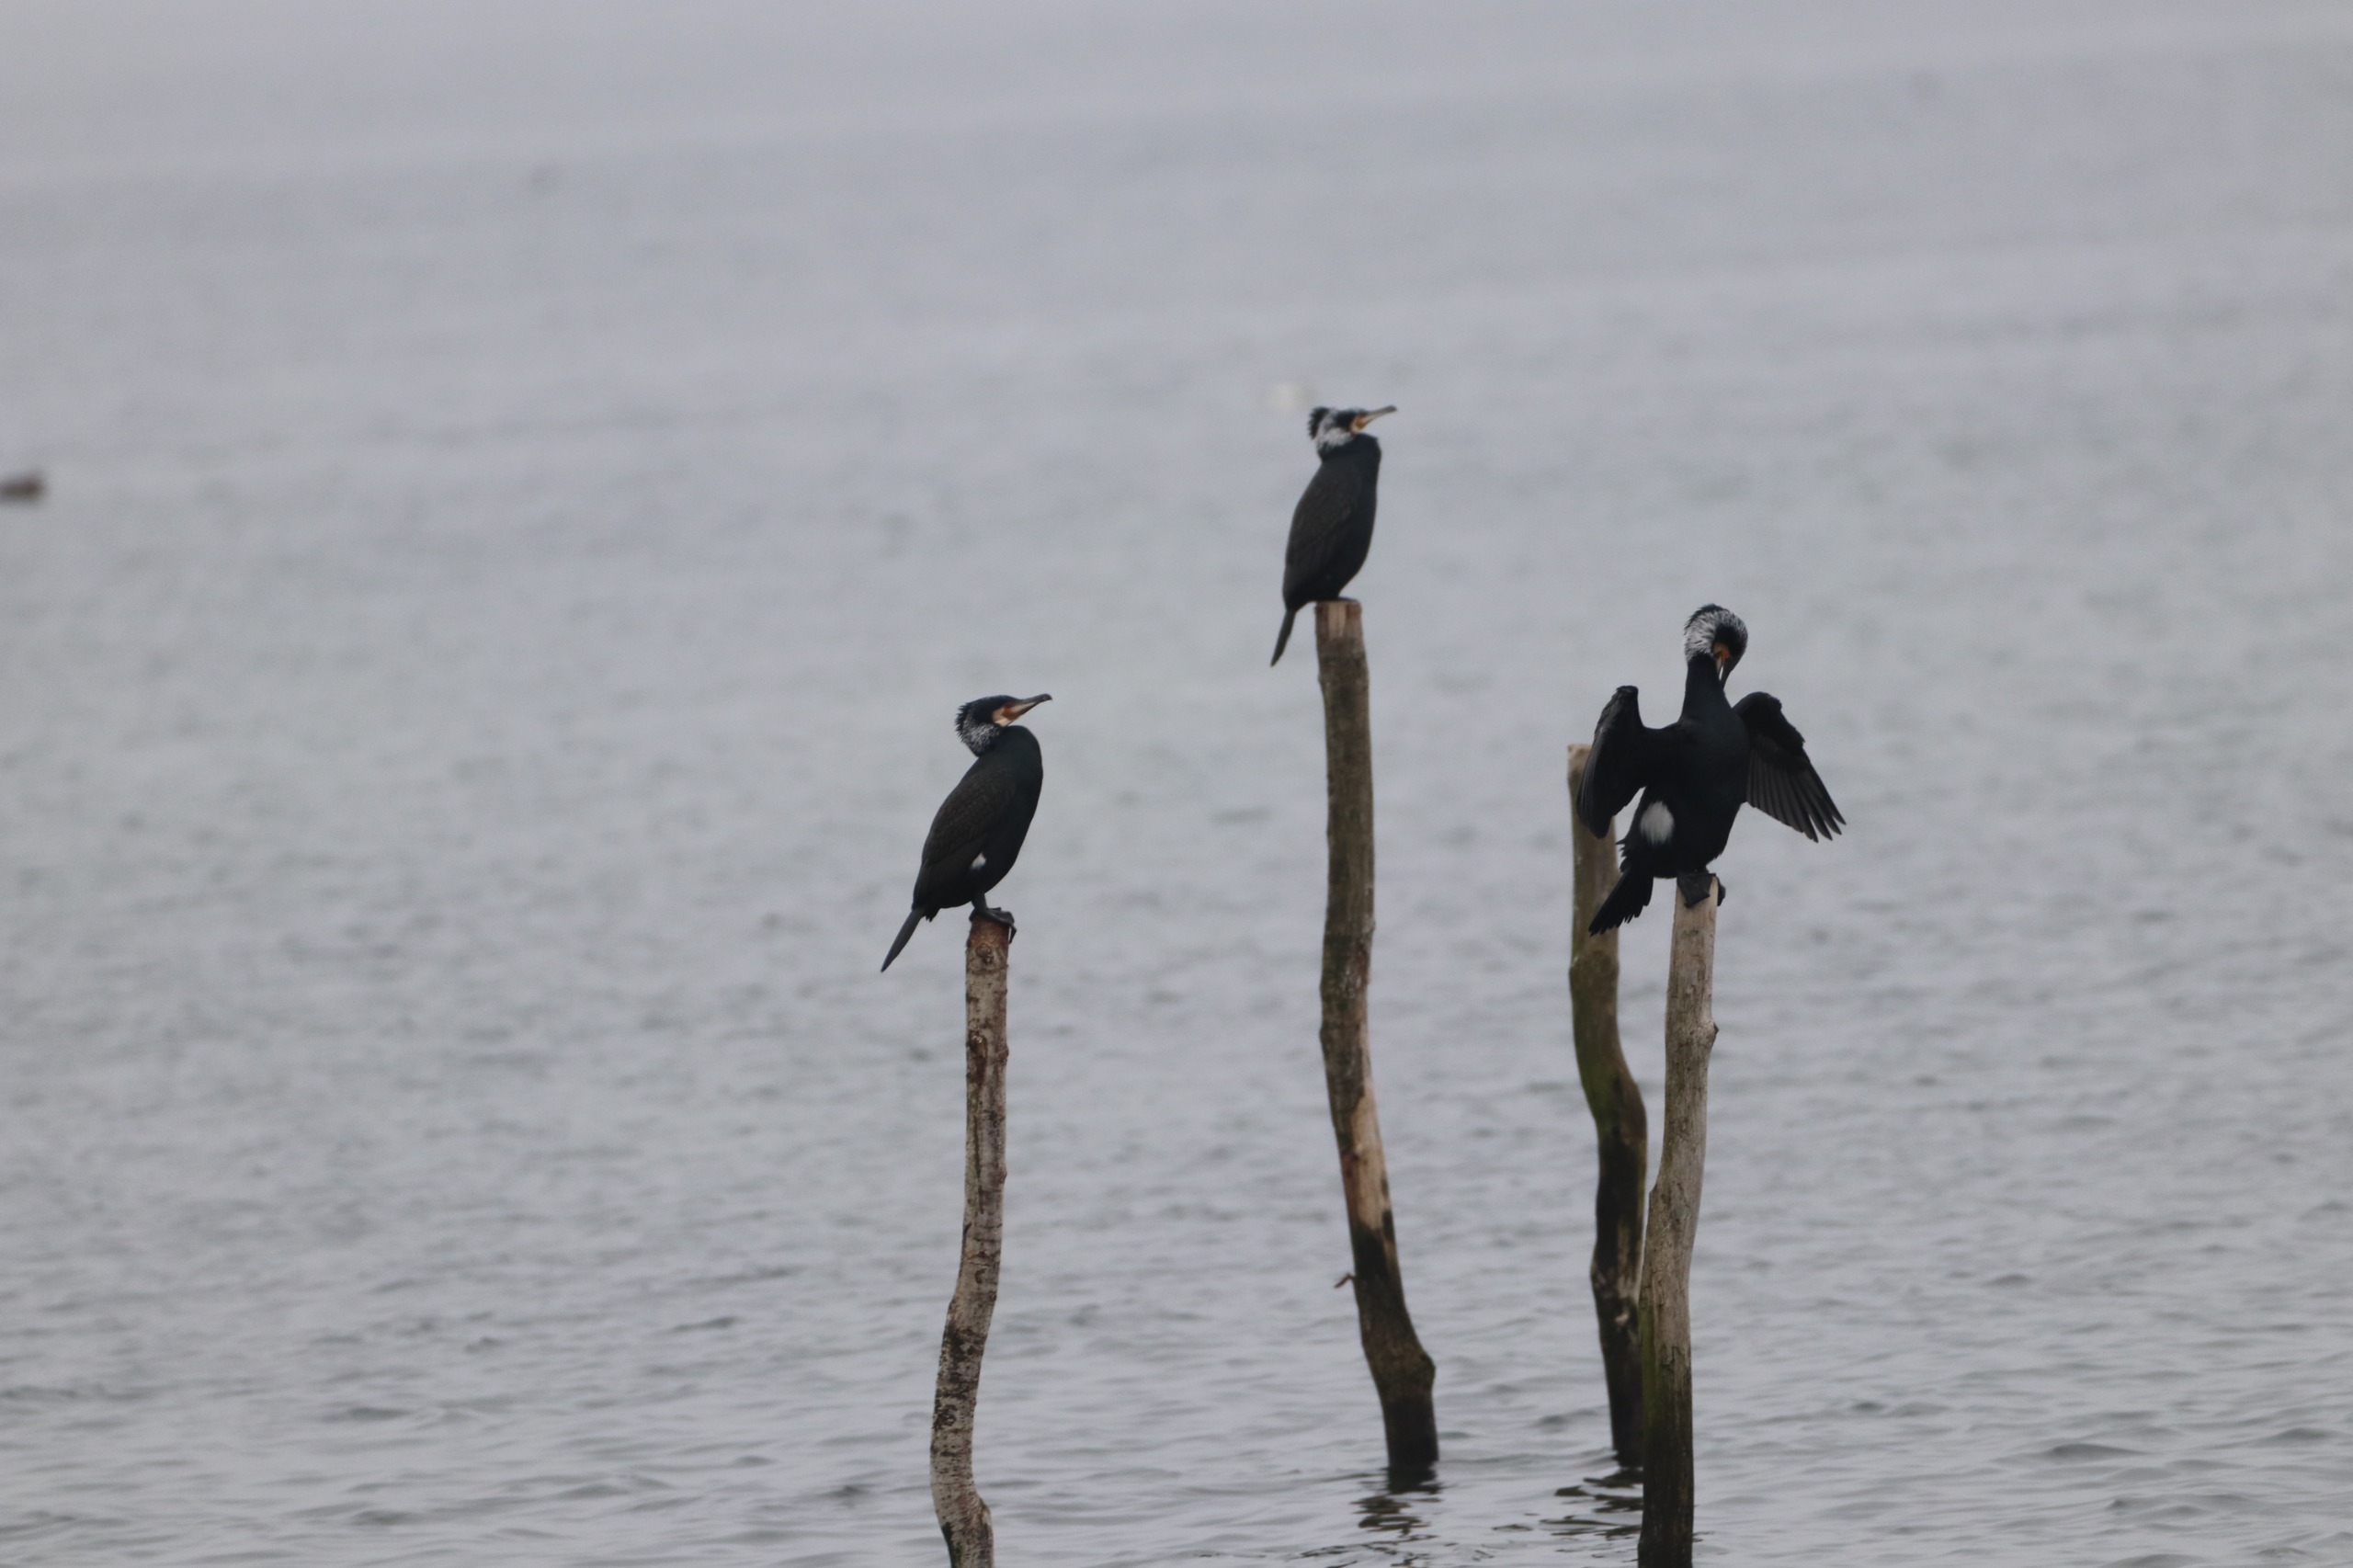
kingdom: Animalia
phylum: Chordata
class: Aves
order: Suliformes
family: Phalacrocoracidae
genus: Phalacrocorax
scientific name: Phalacrocorax carbo
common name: Skarv
